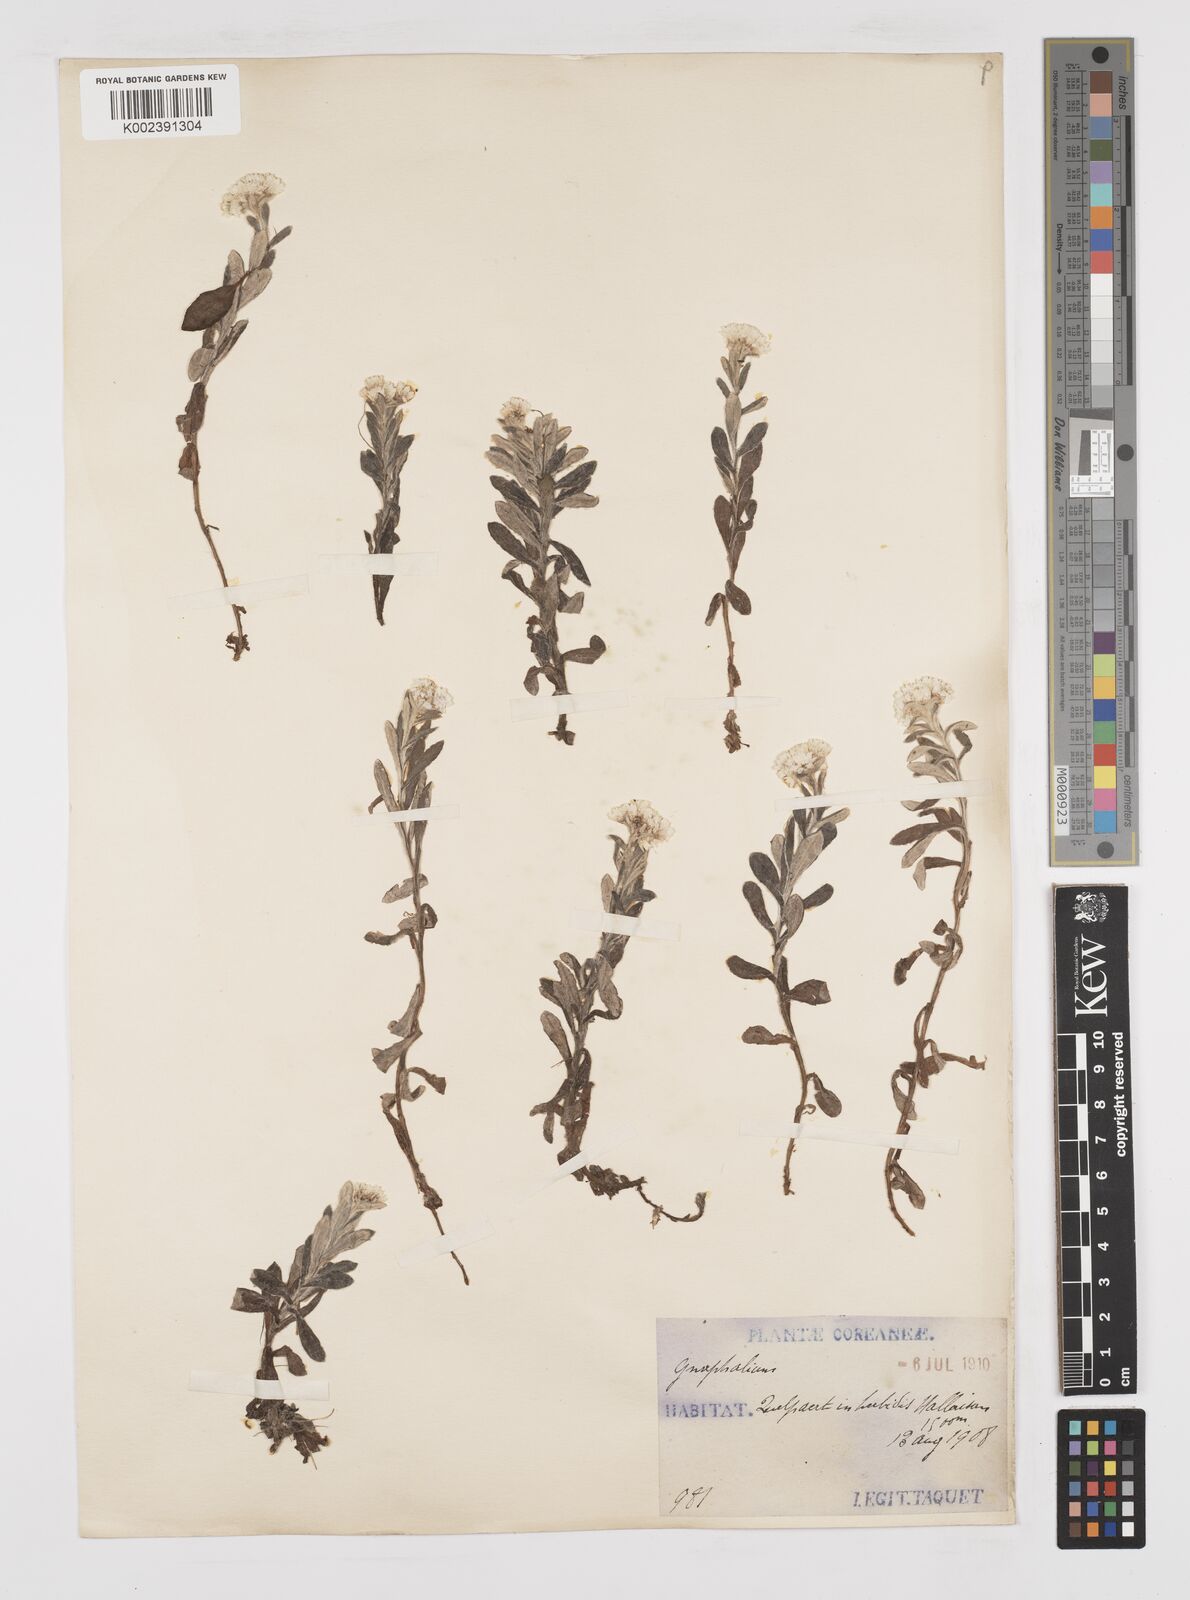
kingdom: Plantae
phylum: Tracheophyta
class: Magnoliopsida
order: Asterales
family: Asteraceae
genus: Anaphalis
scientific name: Anaphalis sinica
